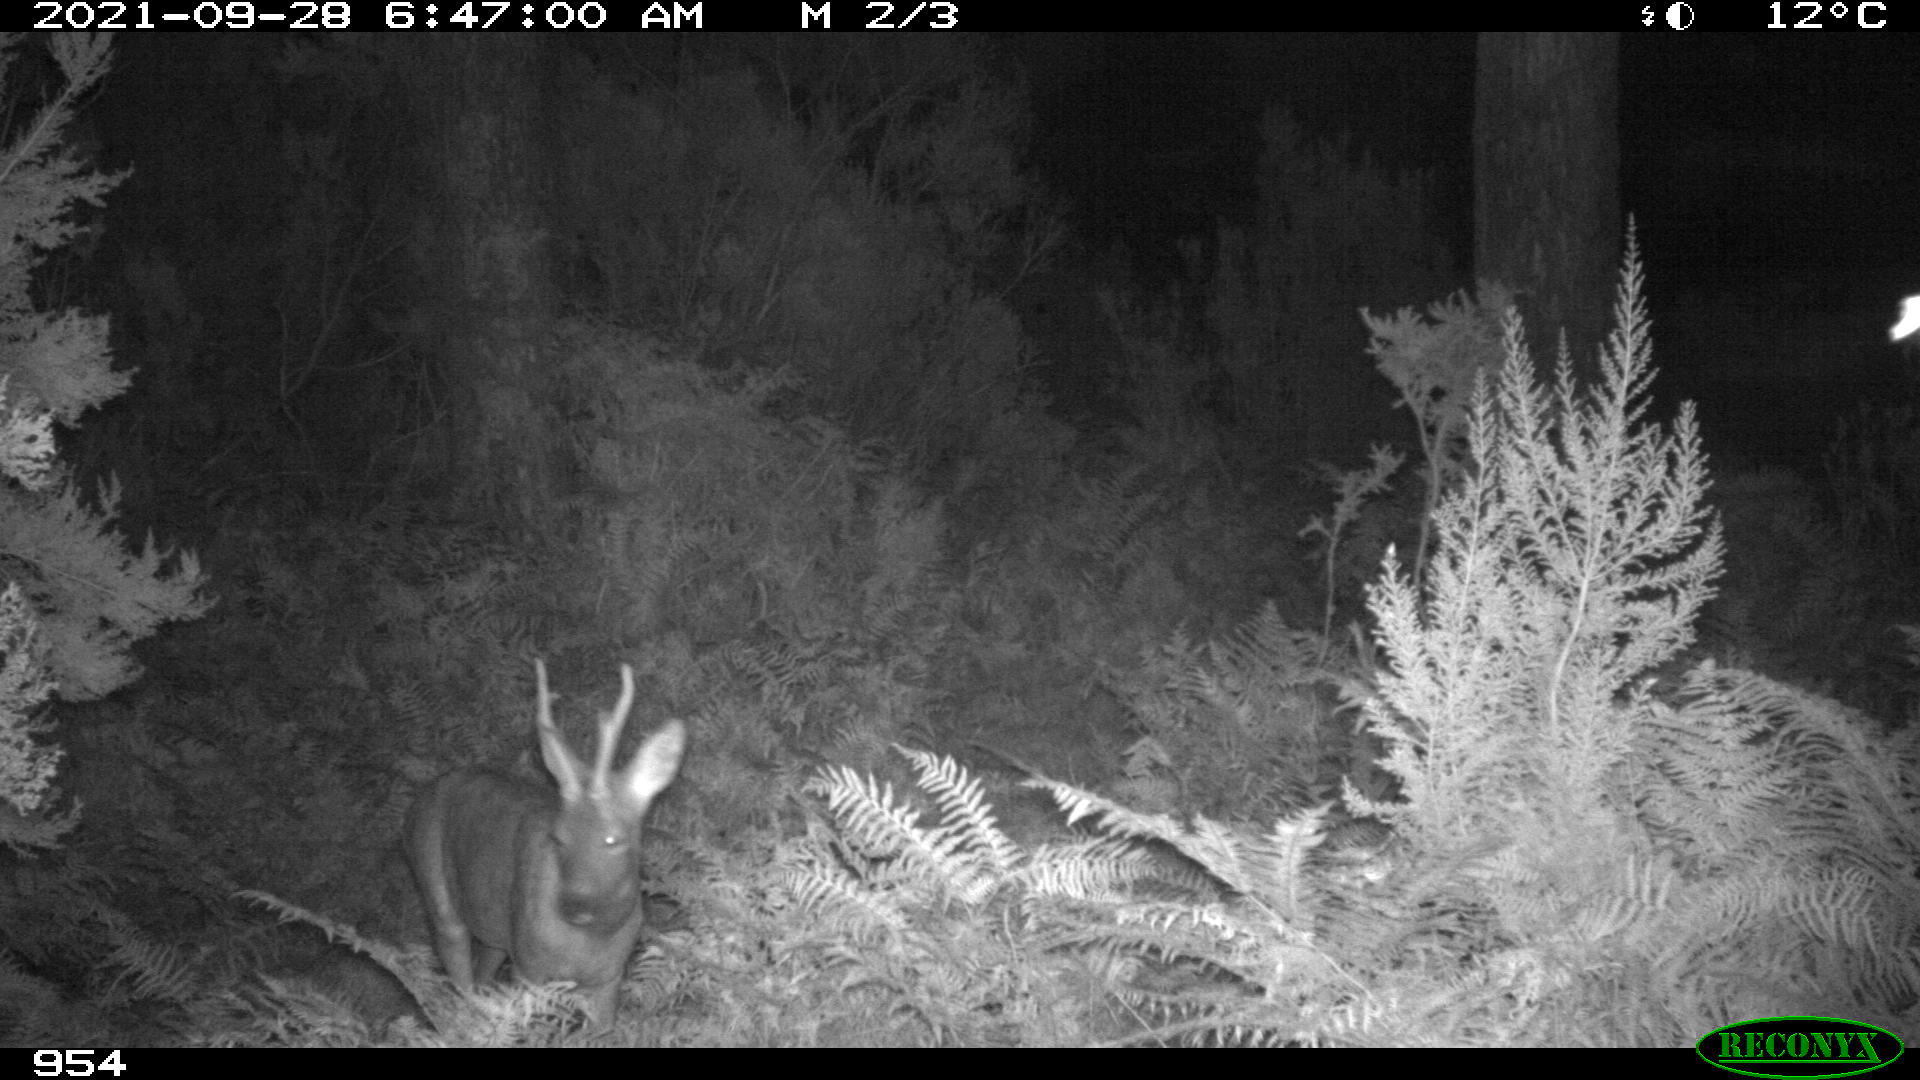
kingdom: Animalia
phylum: Chordata
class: Mammalia
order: Artiodactyla
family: Cervidae
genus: Capreolus
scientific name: Capreolus capreolus
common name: Western roe deer
